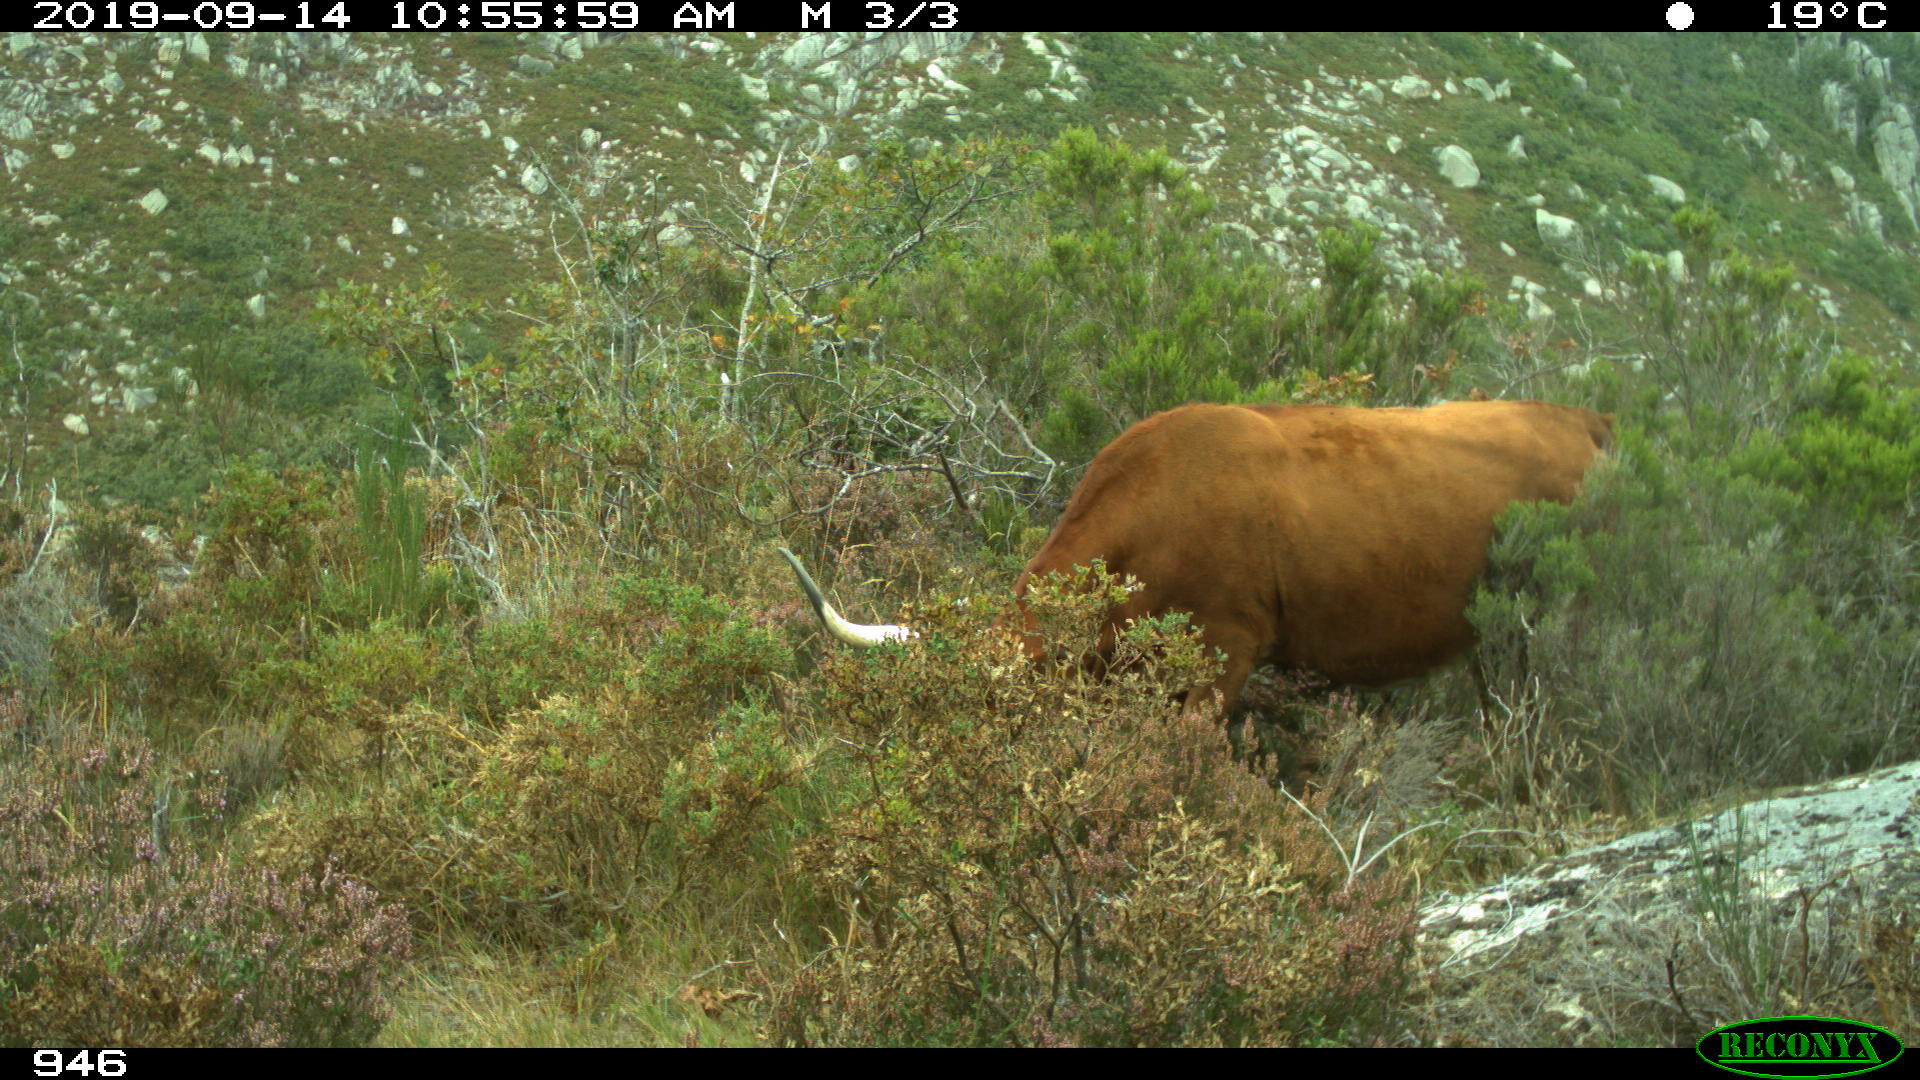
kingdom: Animalia
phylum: Chordata
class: Mammalia
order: Artiodactyla
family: Bovidae
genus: Bos
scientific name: Bos taurus
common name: Domesticated cattle
